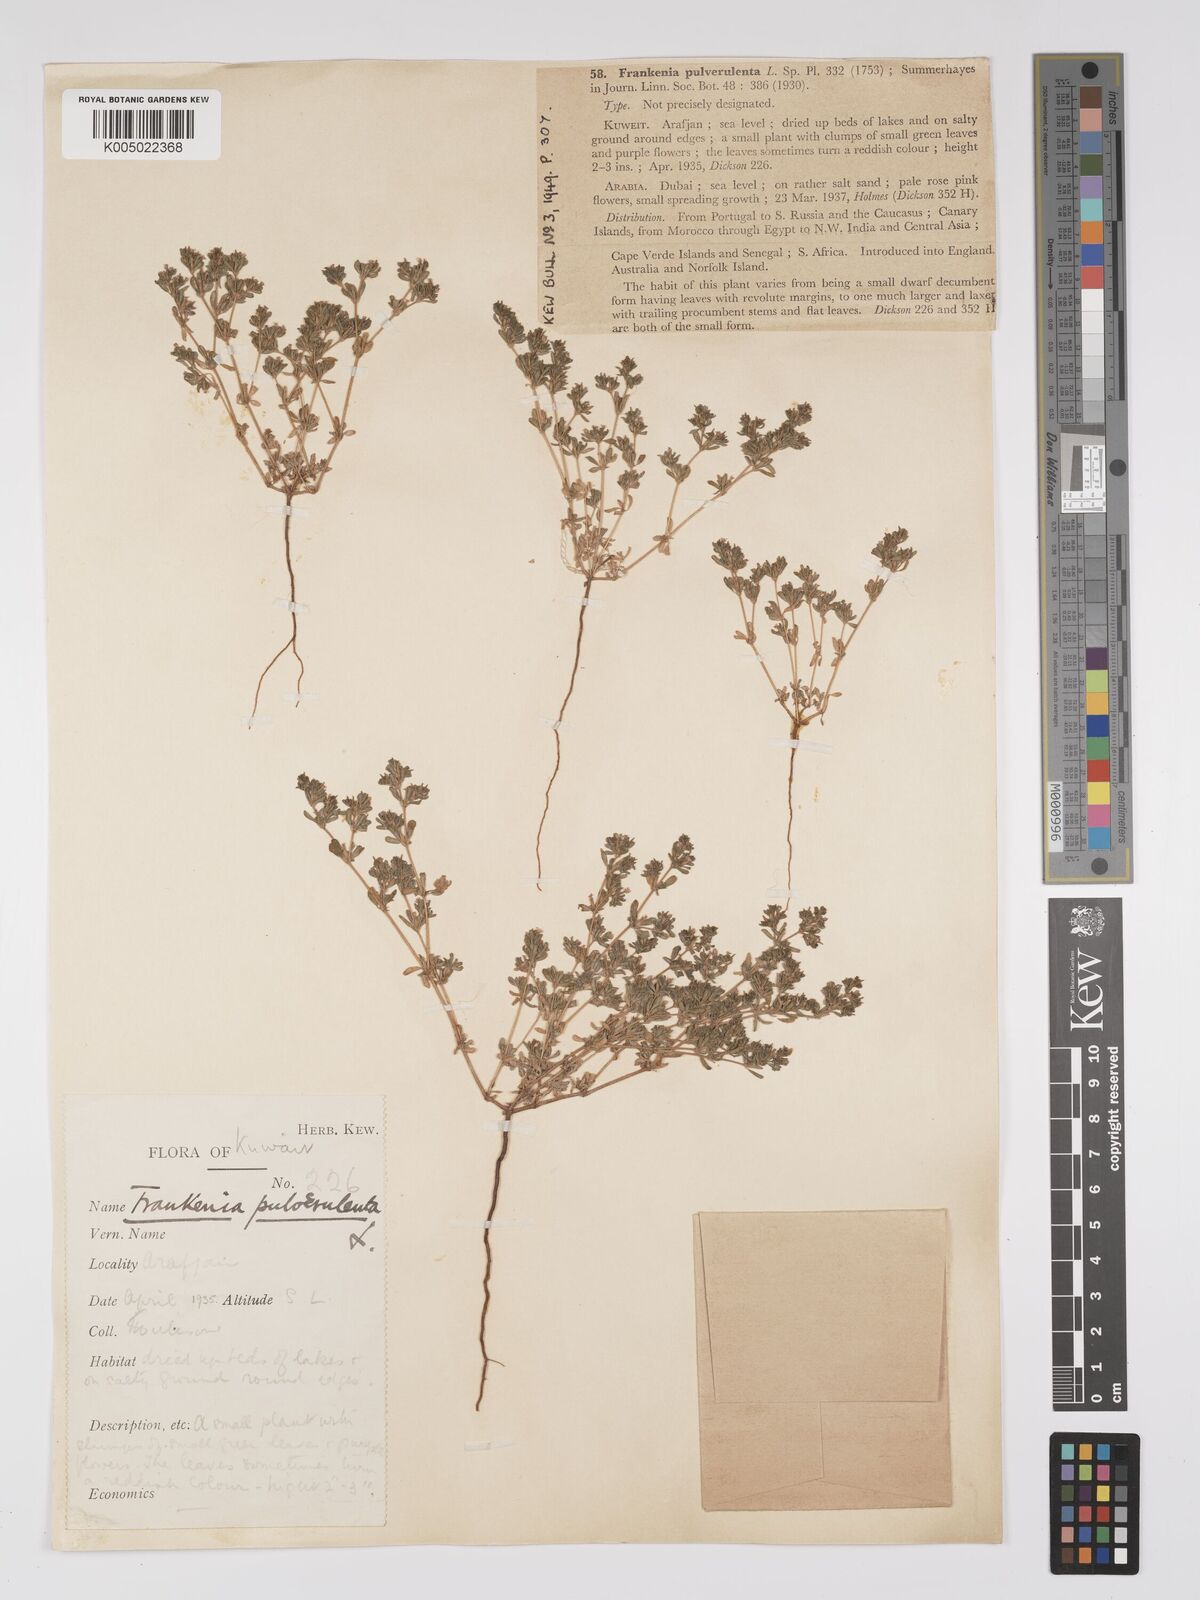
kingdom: Plantae
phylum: Tracheophyta
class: Magnoliopsida
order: Caryophyllales
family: Frankeniaceae
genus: Frankenia
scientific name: Frankenia pulverulenta
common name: European seaheath
